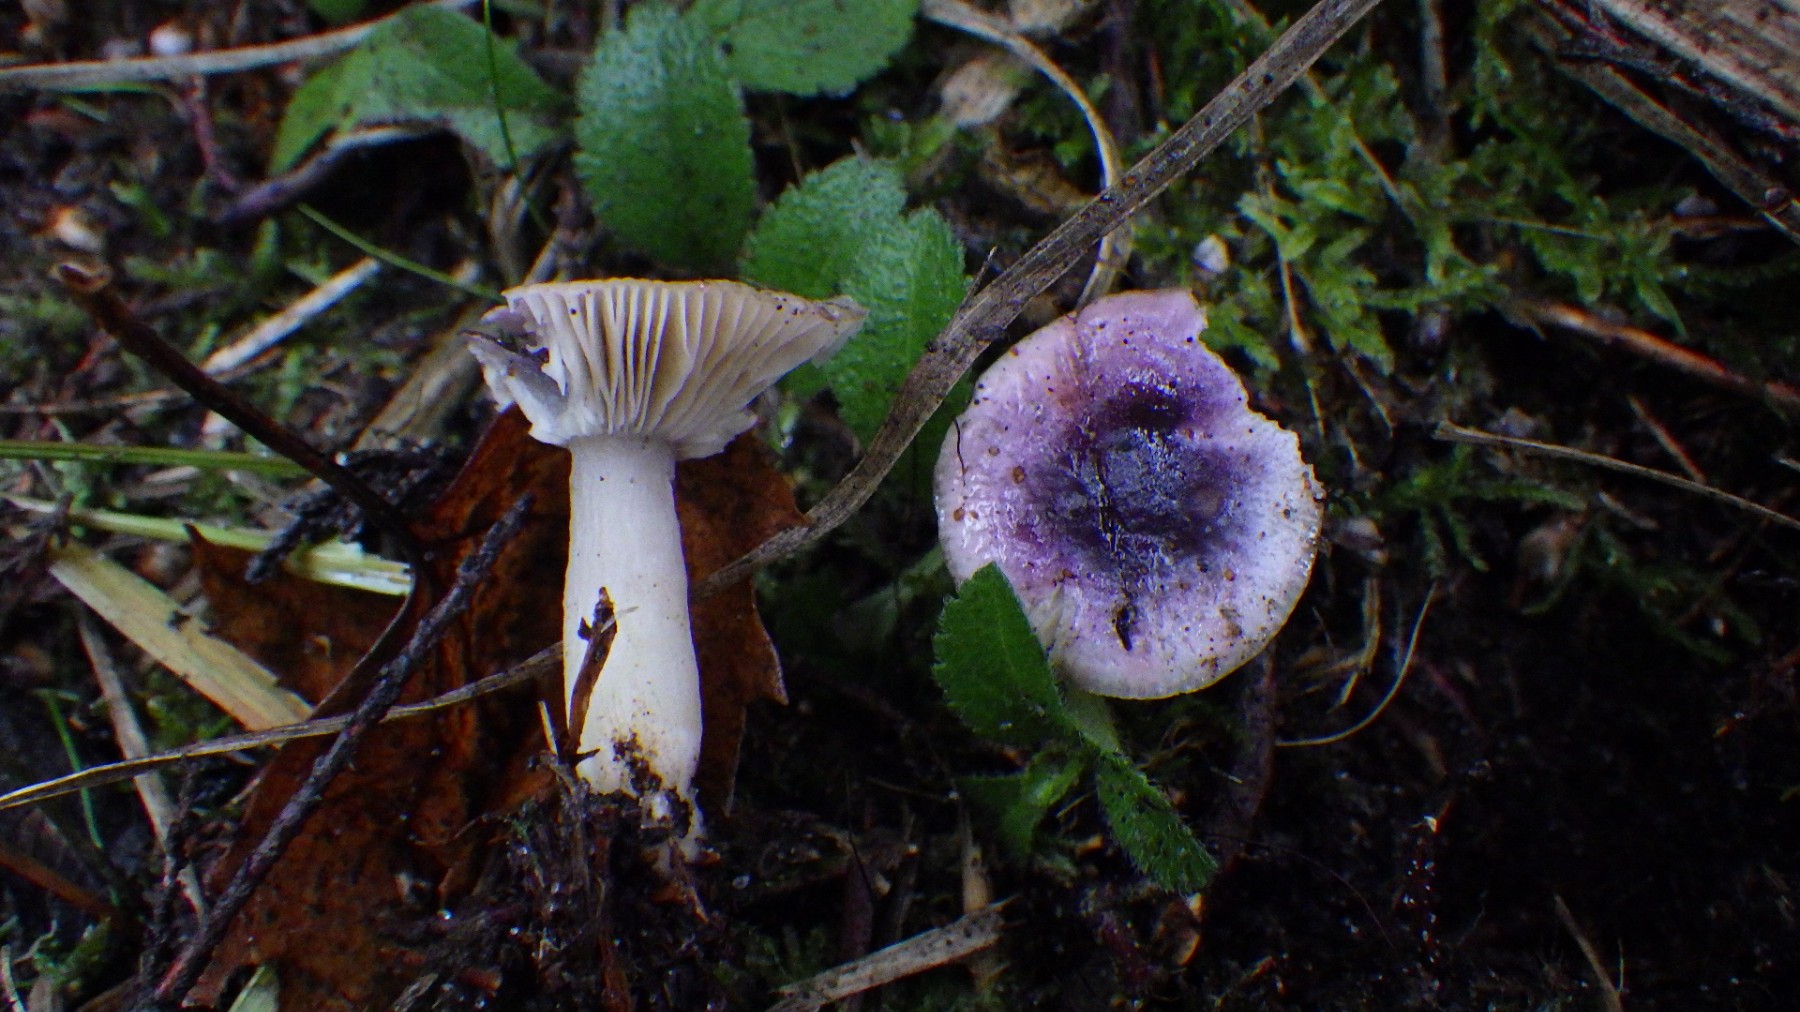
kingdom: Fungi
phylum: Basidiomycota
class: Agaricomycetes
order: Russulales
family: Russulaceae
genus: Russula
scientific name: Russula
